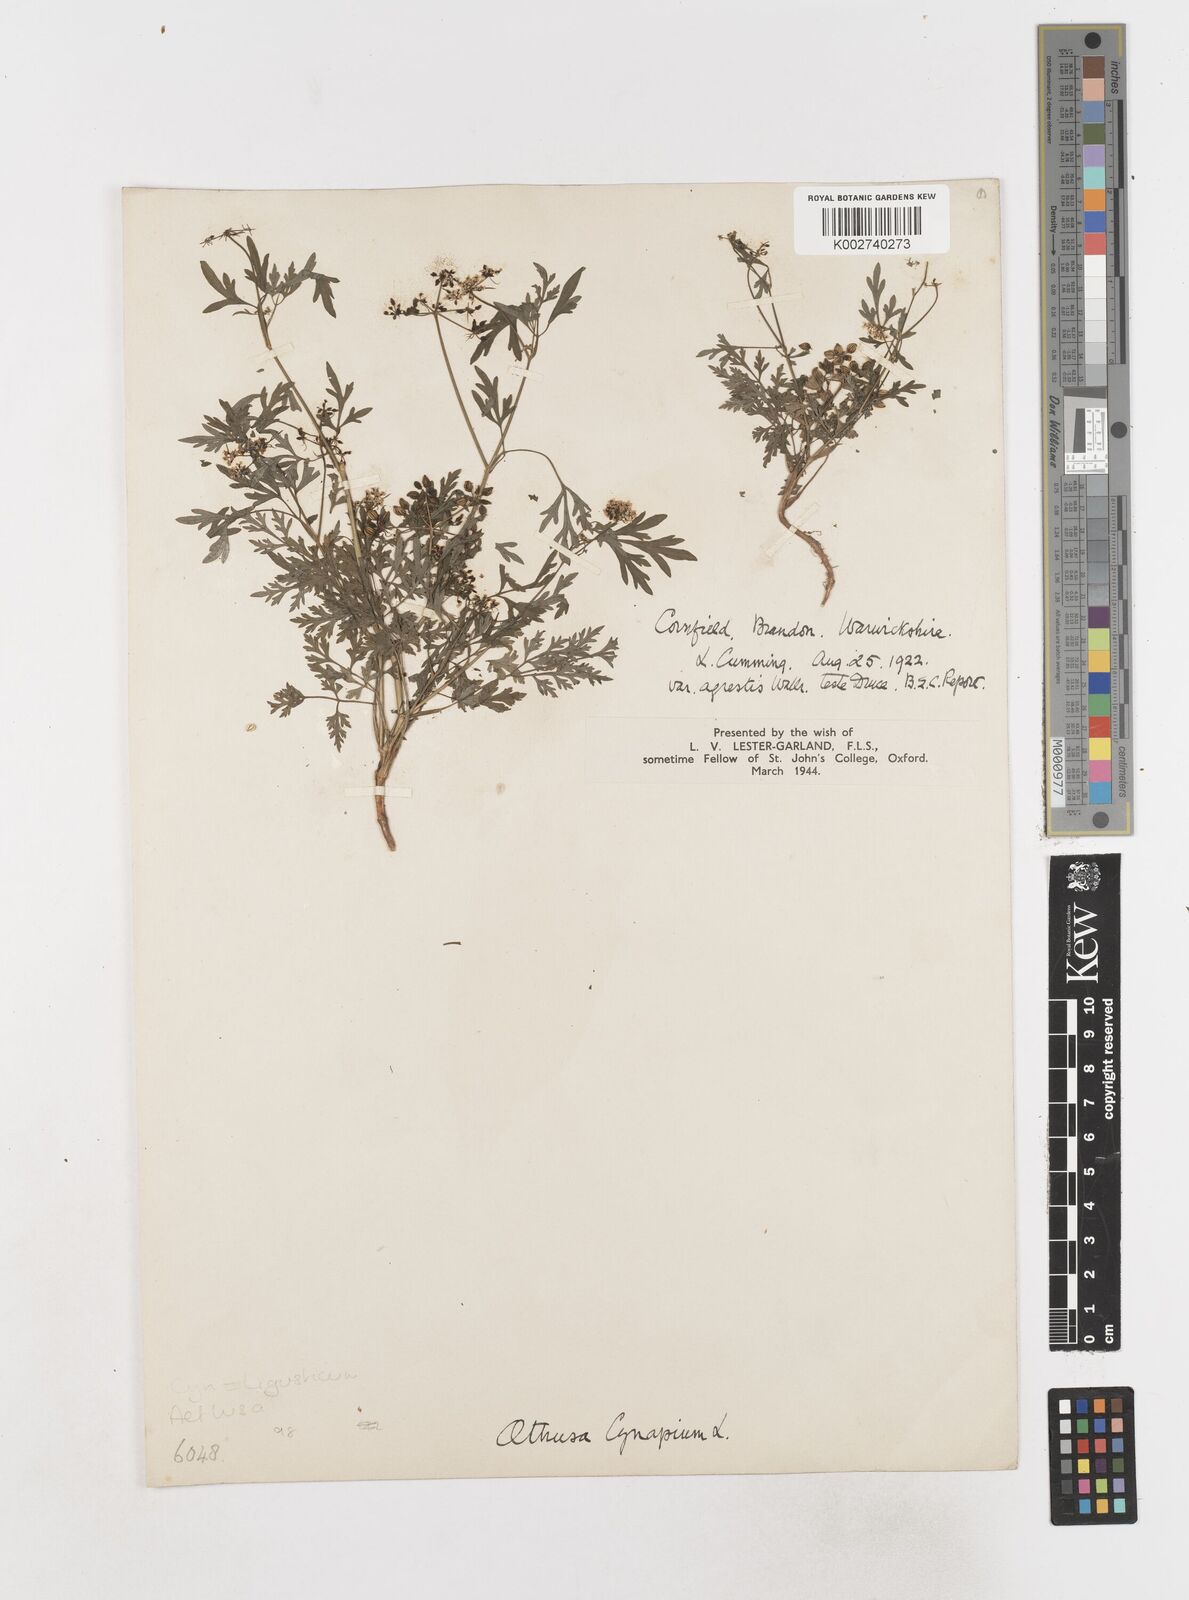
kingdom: Plantae
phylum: Tracheophyta
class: Magnoliopsida
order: Apiales
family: Apiaceae
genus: Aethusa
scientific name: Aethusa cynapium
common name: Fool's parsley
